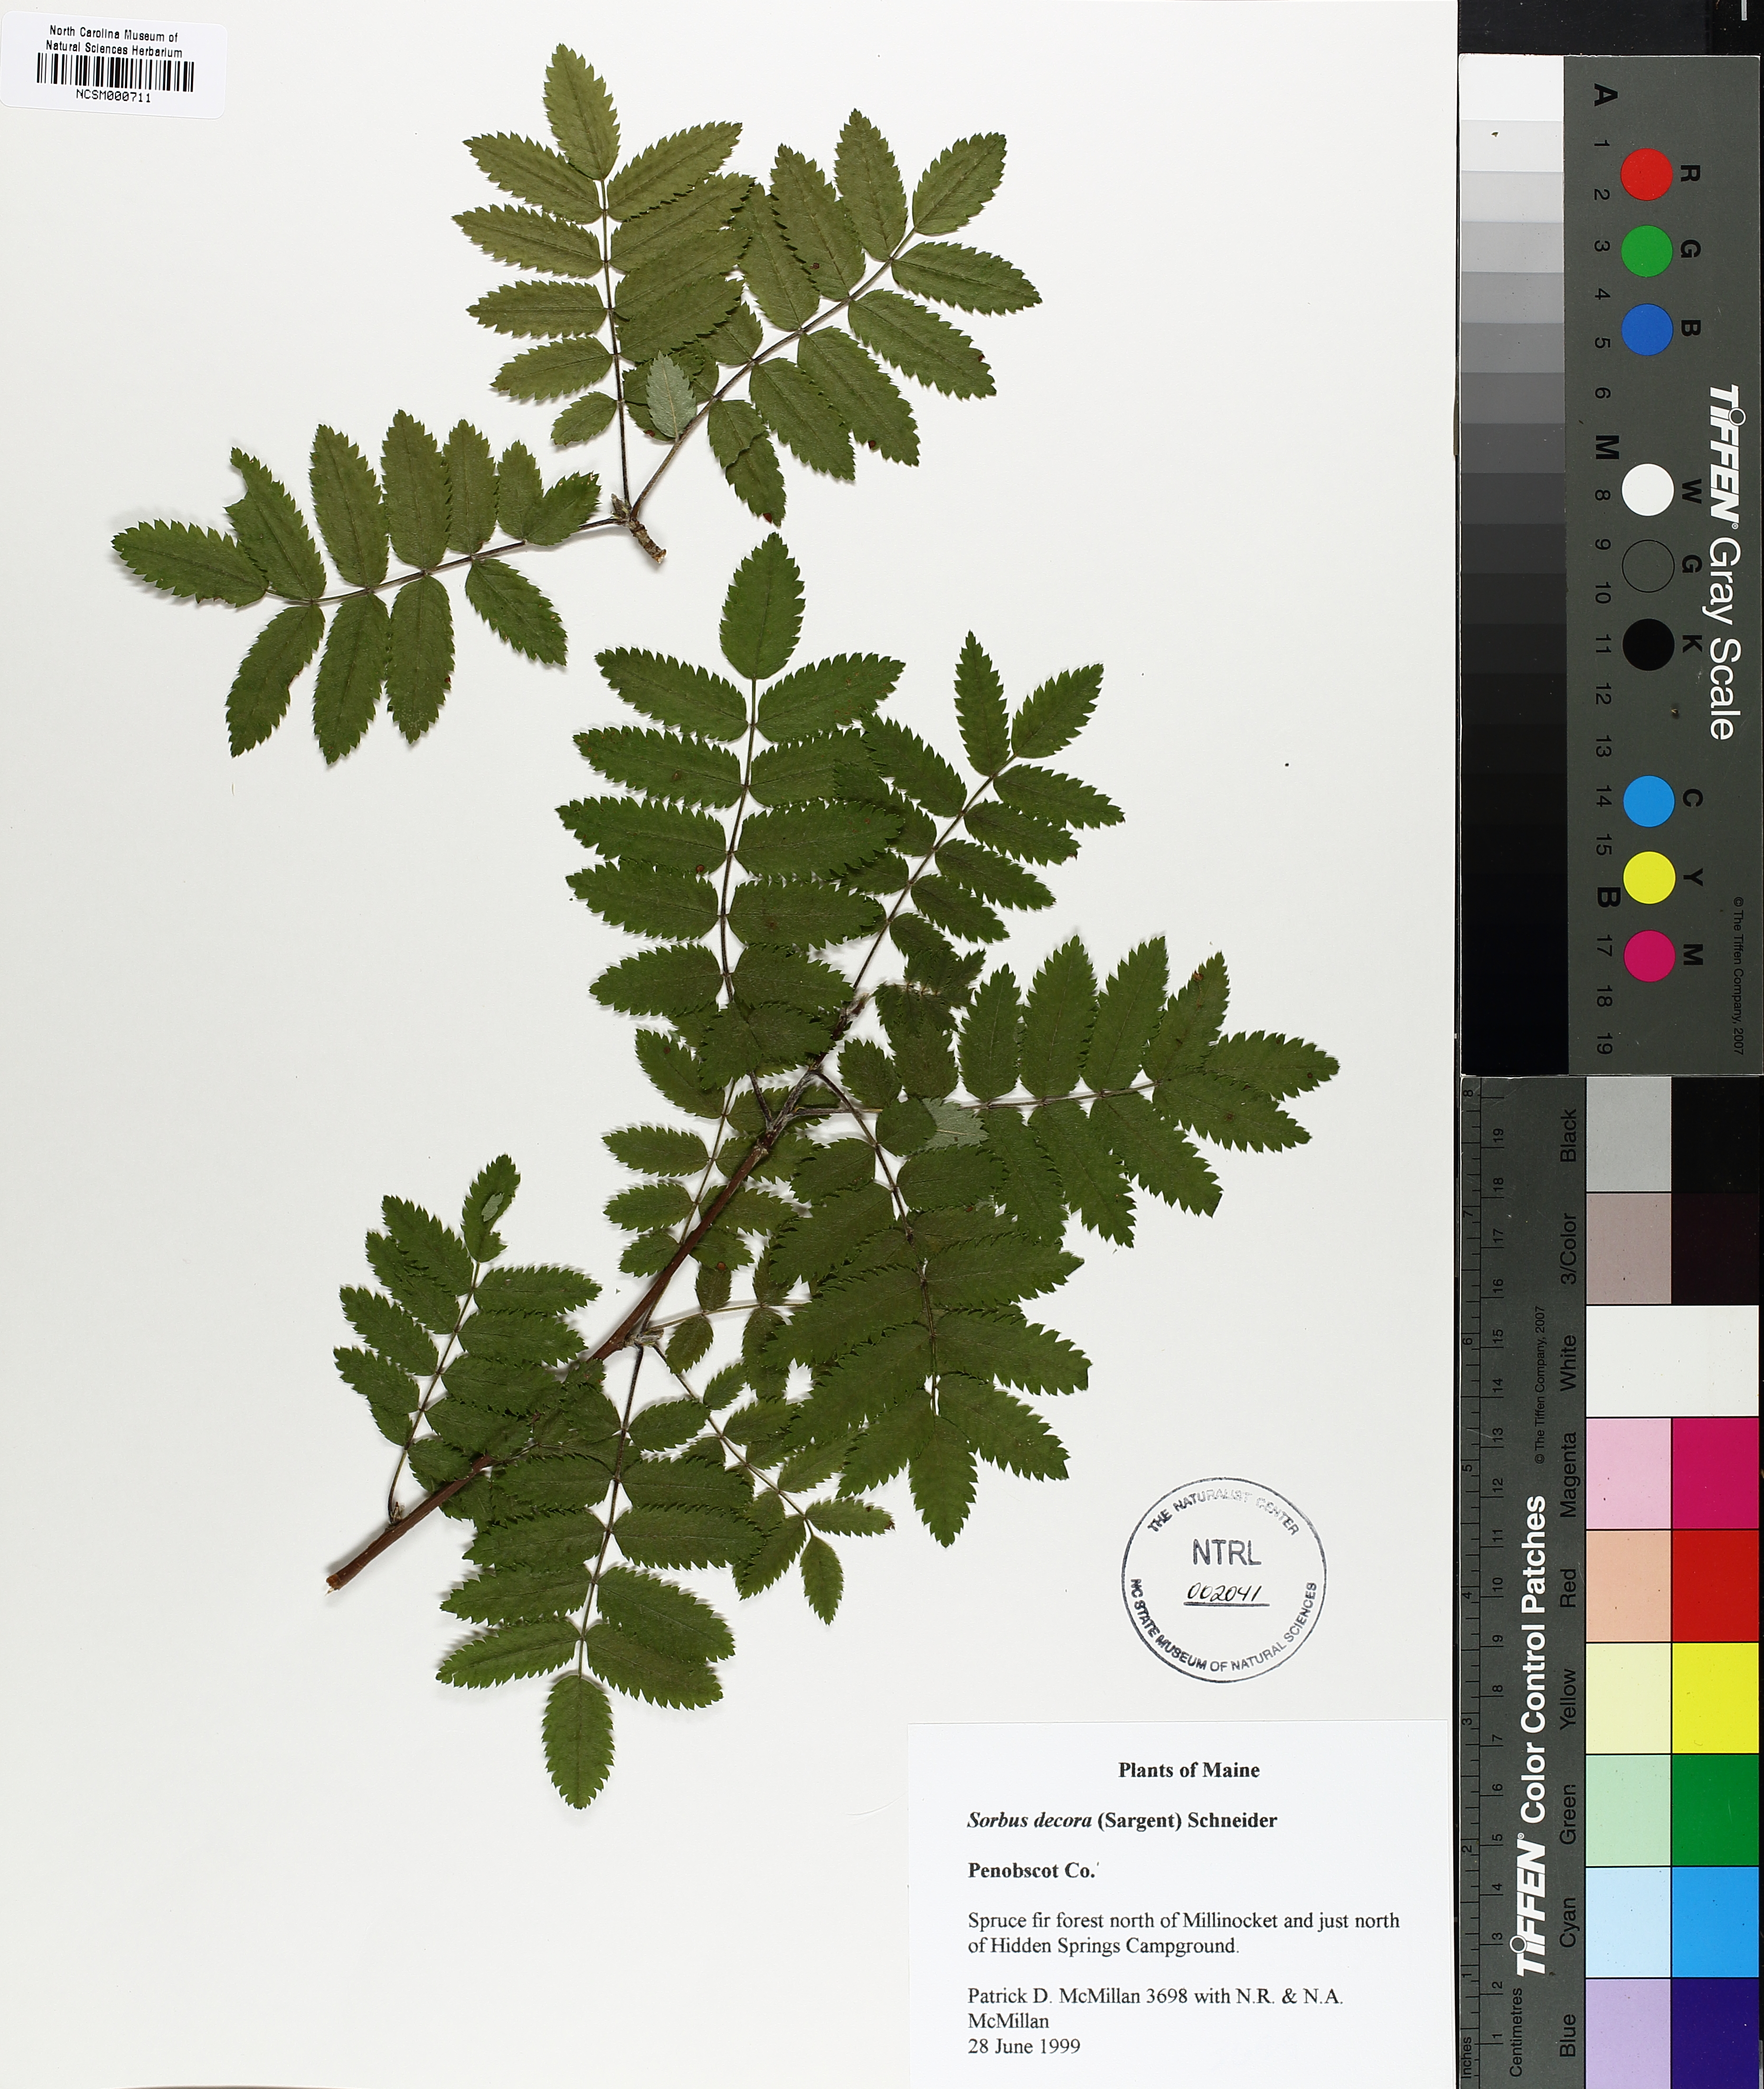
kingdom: Plantae
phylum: Tracheophyta
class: Magnoliopsida
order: Rosales
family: Rosaceae
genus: Sorbus
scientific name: Sorbus decora
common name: Northern mountain-ash
